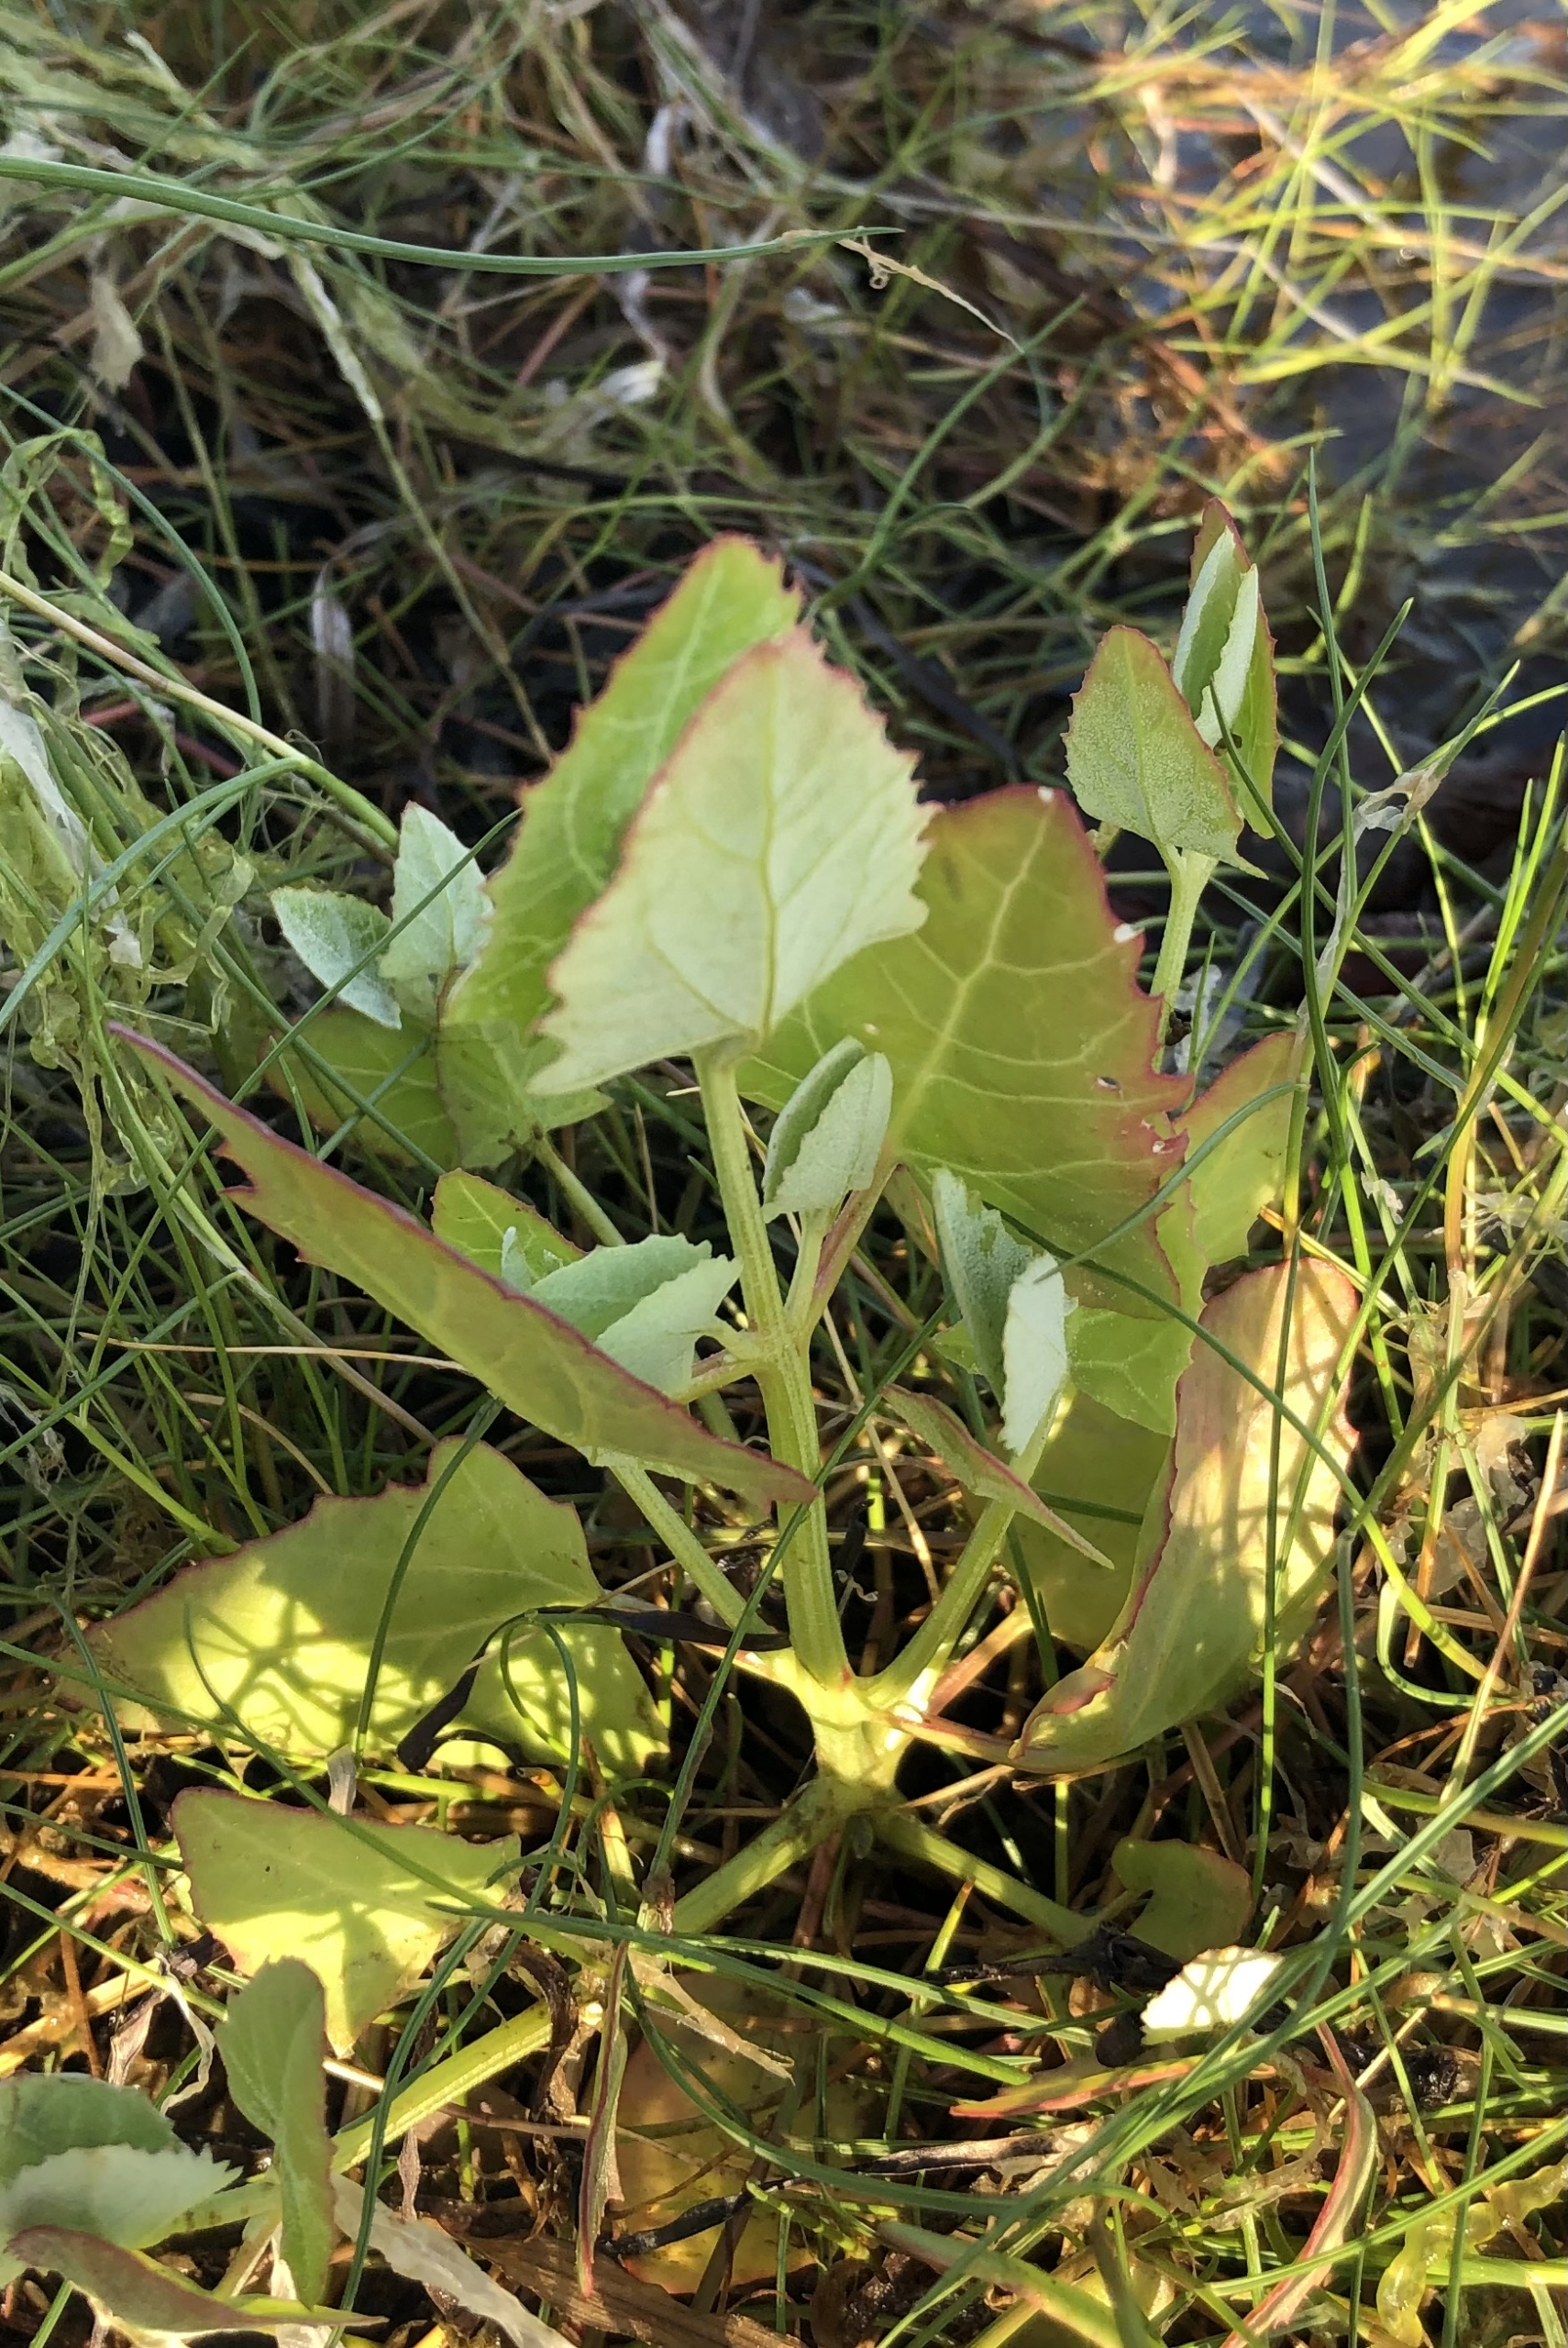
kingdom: Plantae
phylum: Tracheophyta
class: Magnoliopsida
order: Caryophyllales
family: Amaranthaceae
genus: Atriplex
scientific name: Atriplex prostrata
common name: Spyd-mælde
